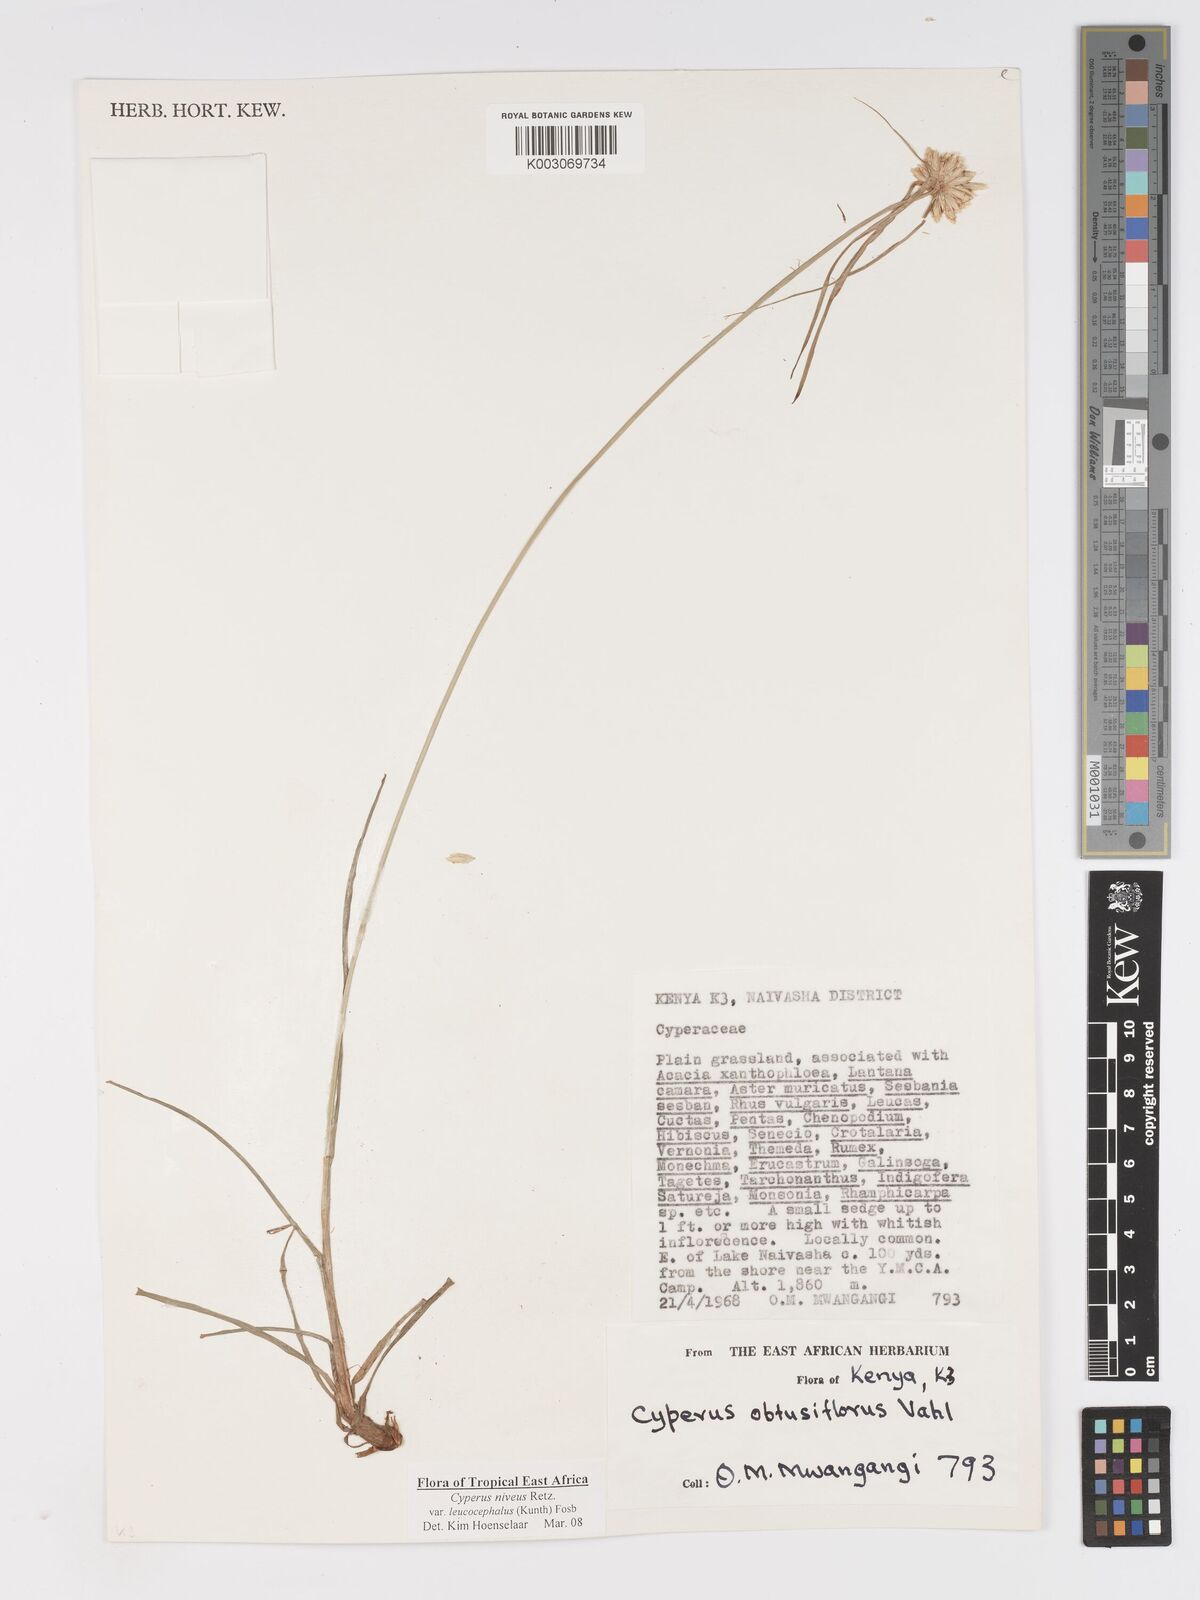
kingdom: Plantae
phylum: Tracheophyta
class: Liliopsida
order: Poales
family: Cyperaceae
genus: Cyperus
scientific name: Cyperus niveus
